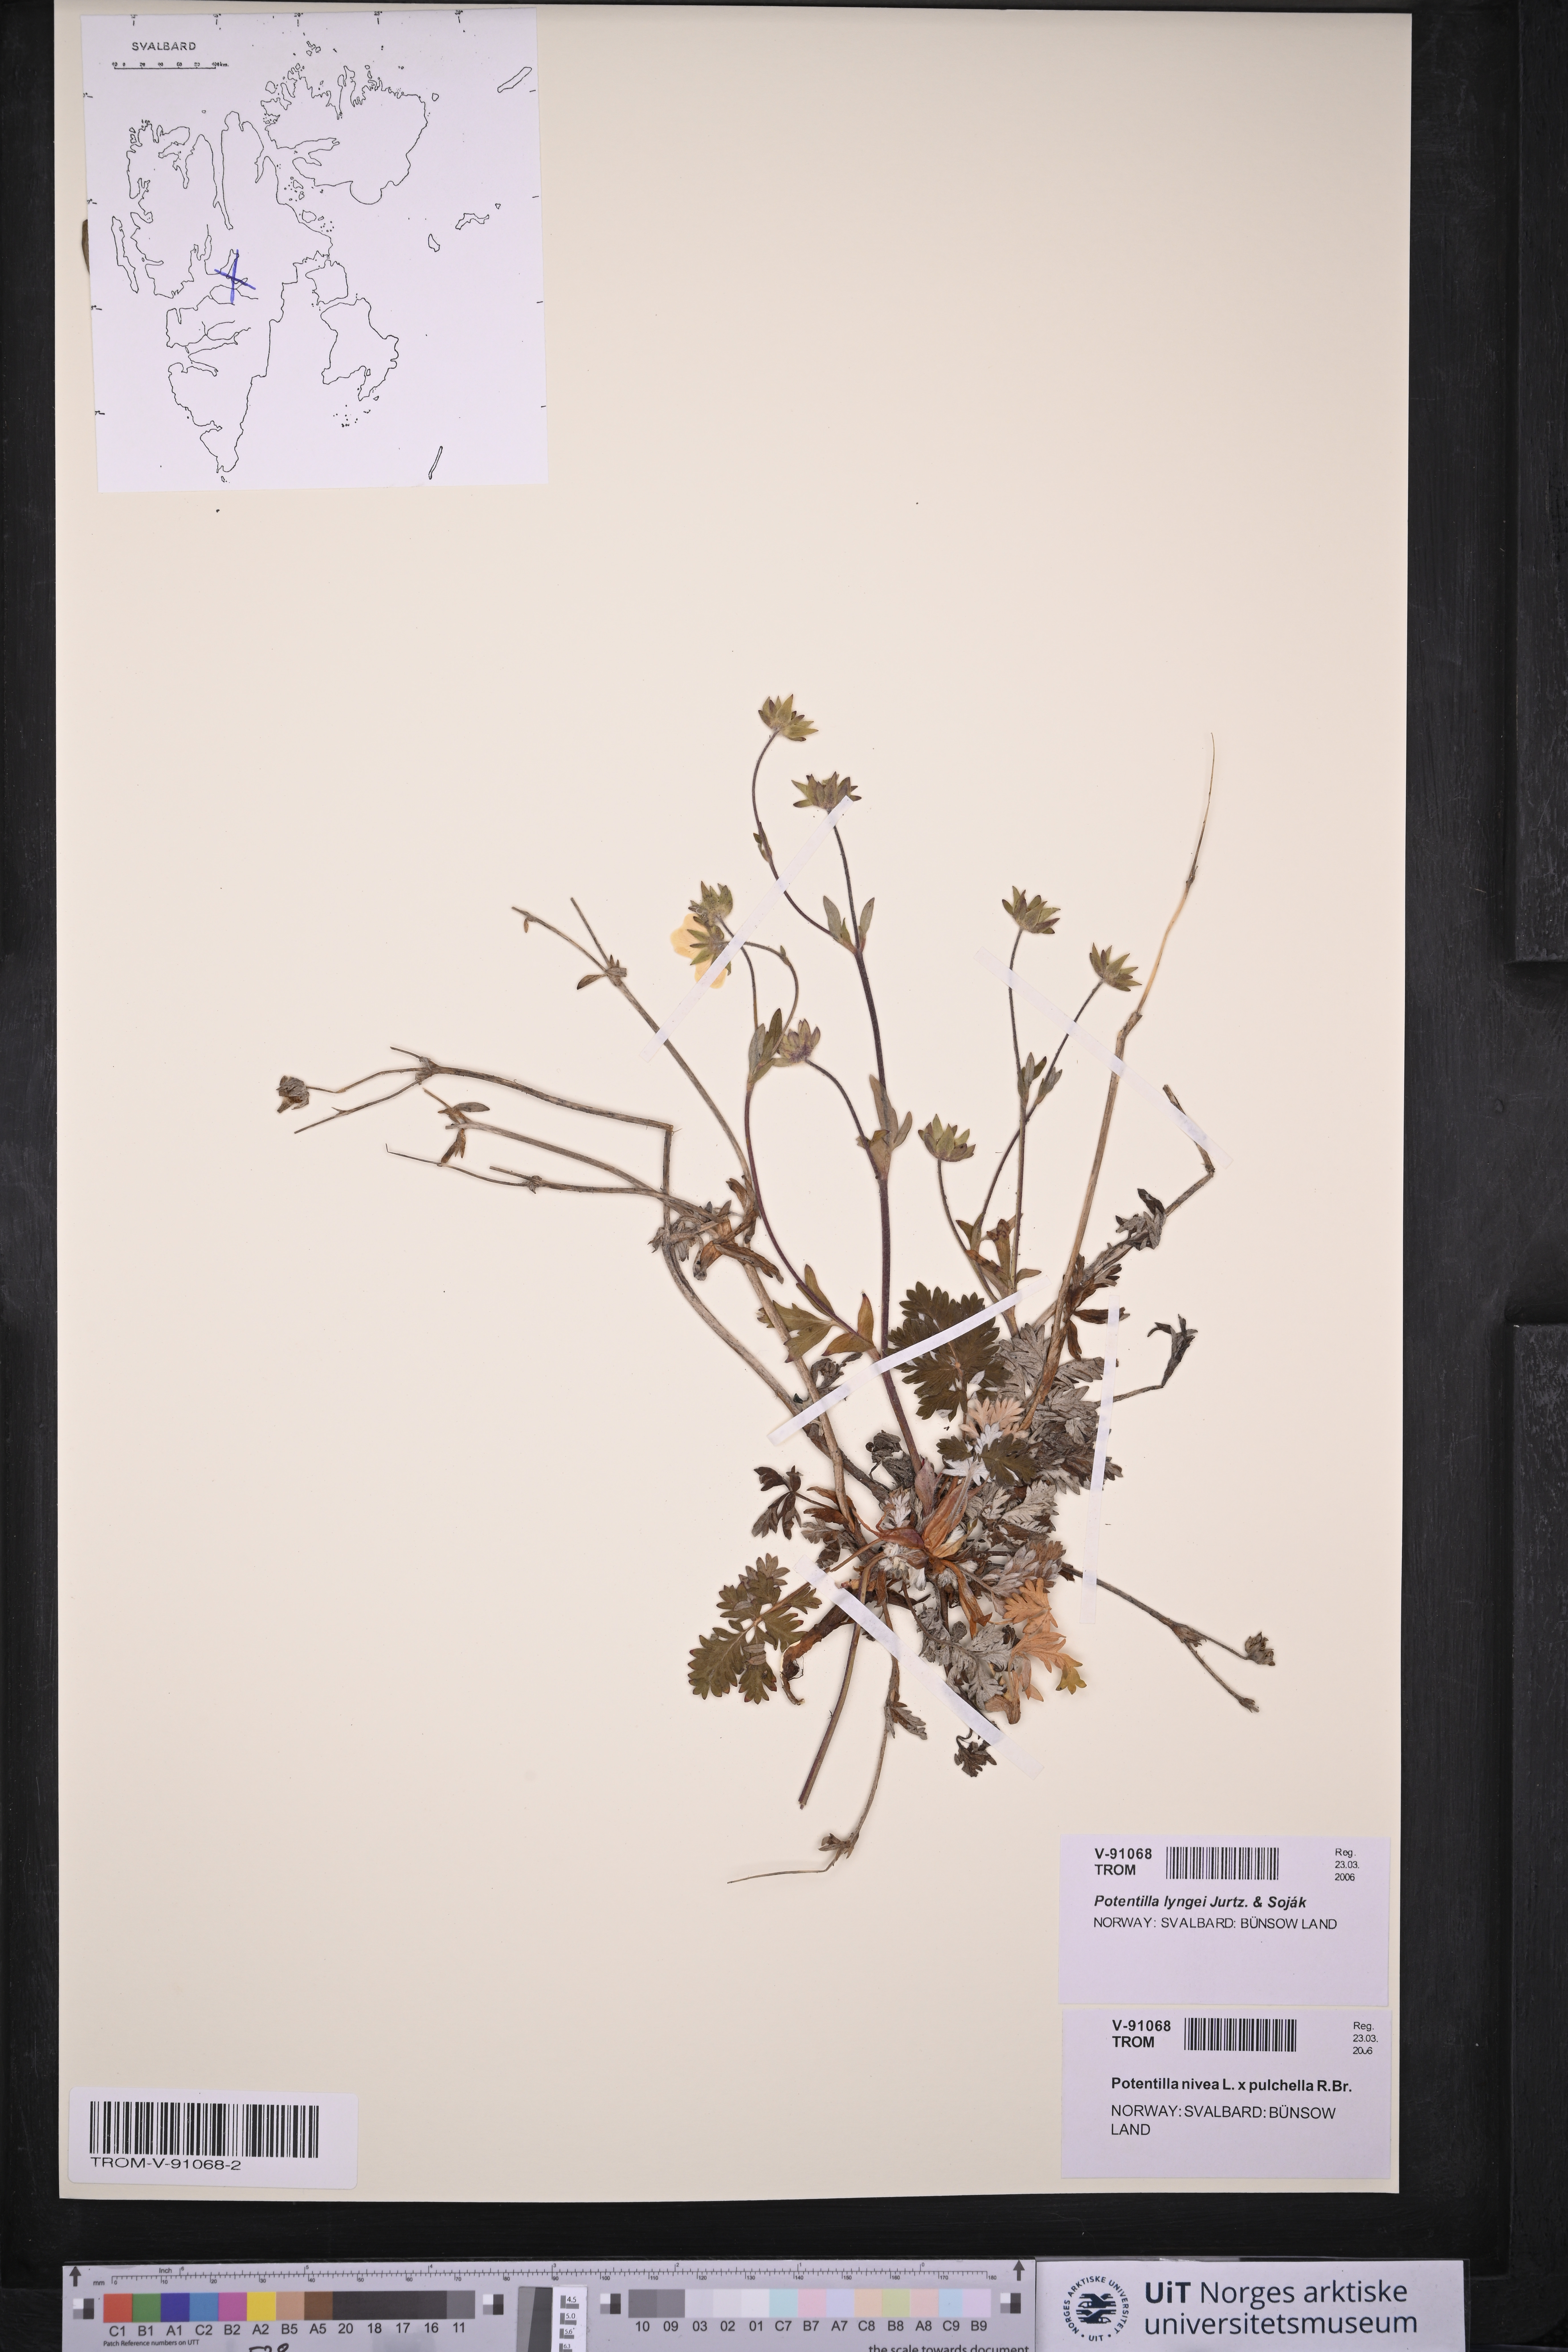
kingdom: Plantae
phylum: Tracheophyta
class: Magnoliopsida
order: Rosales
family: Rosaceae
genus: Potentilla
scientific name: Potentilla sommerfeltii
